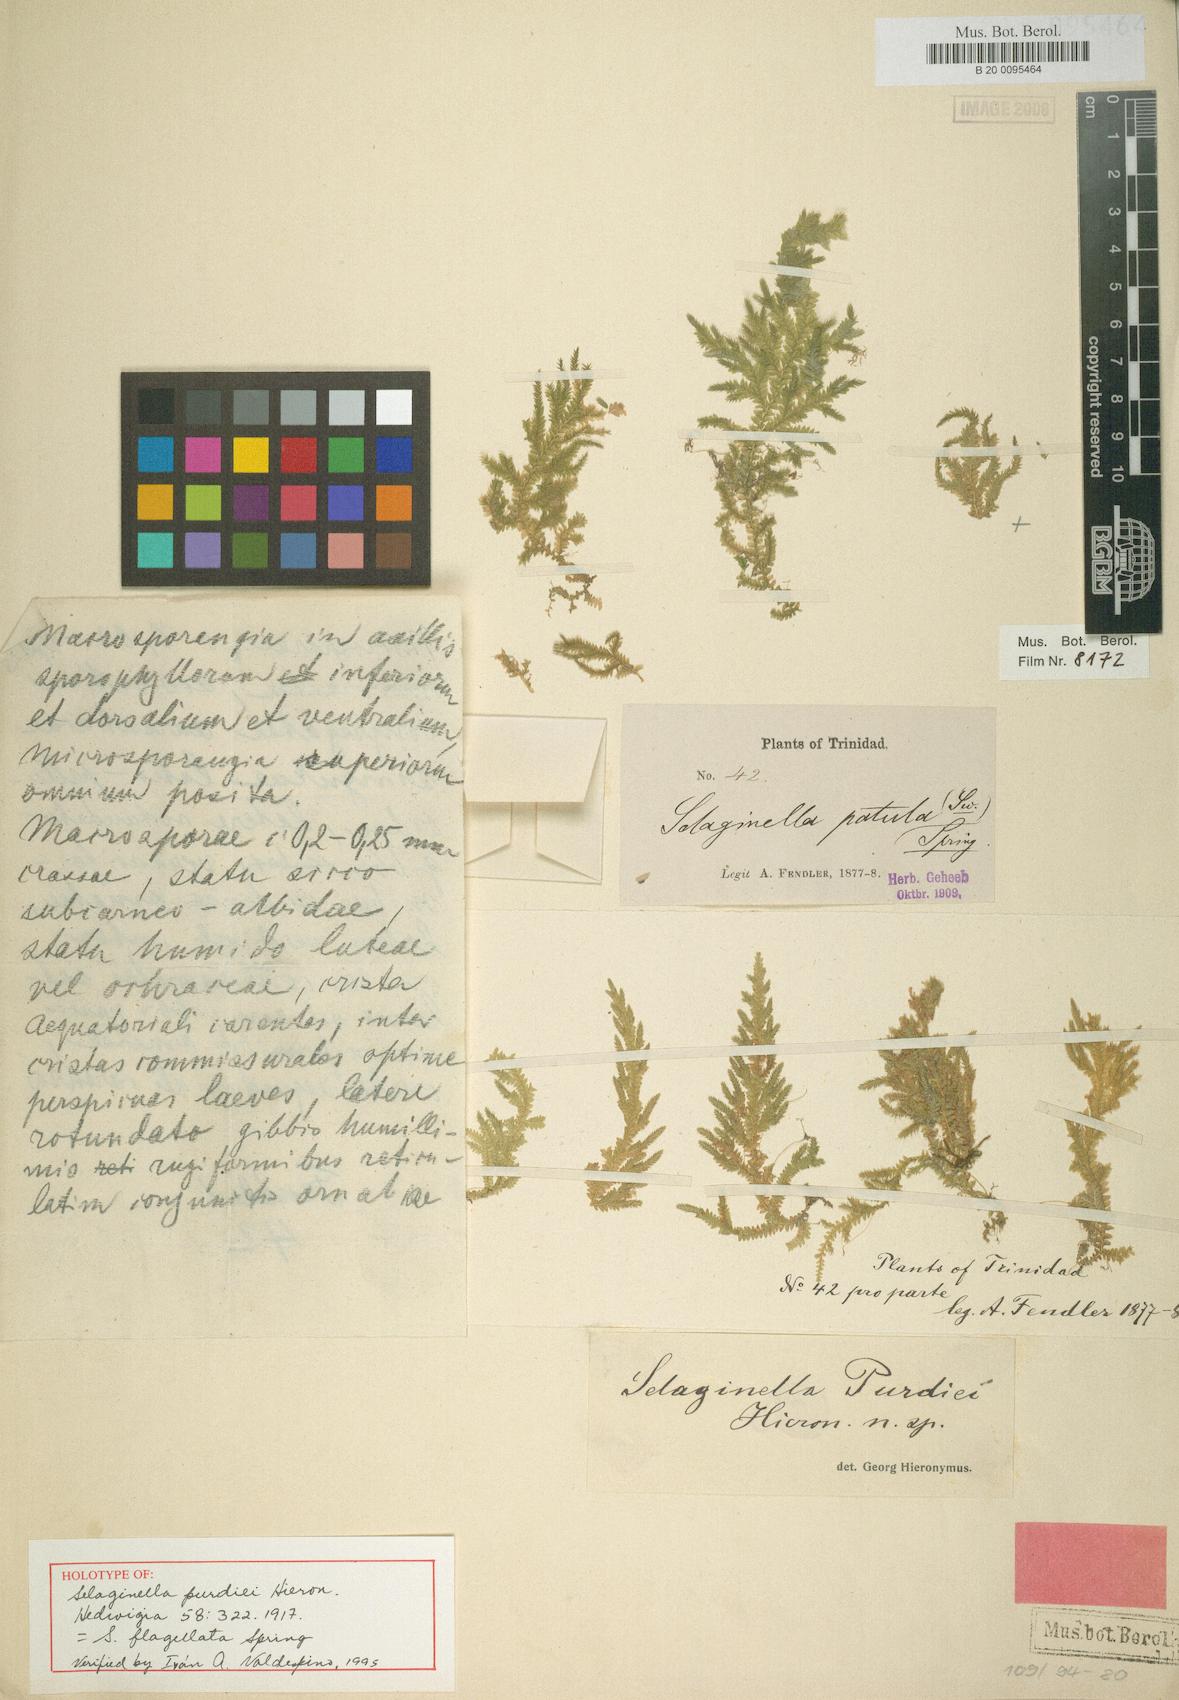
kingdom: Plantae
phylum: Tracheophyta
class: Lycopodiopsida
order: Selaginellales
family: Selaginellaceae
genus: Selaginella
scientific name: Selaginella flagellata
